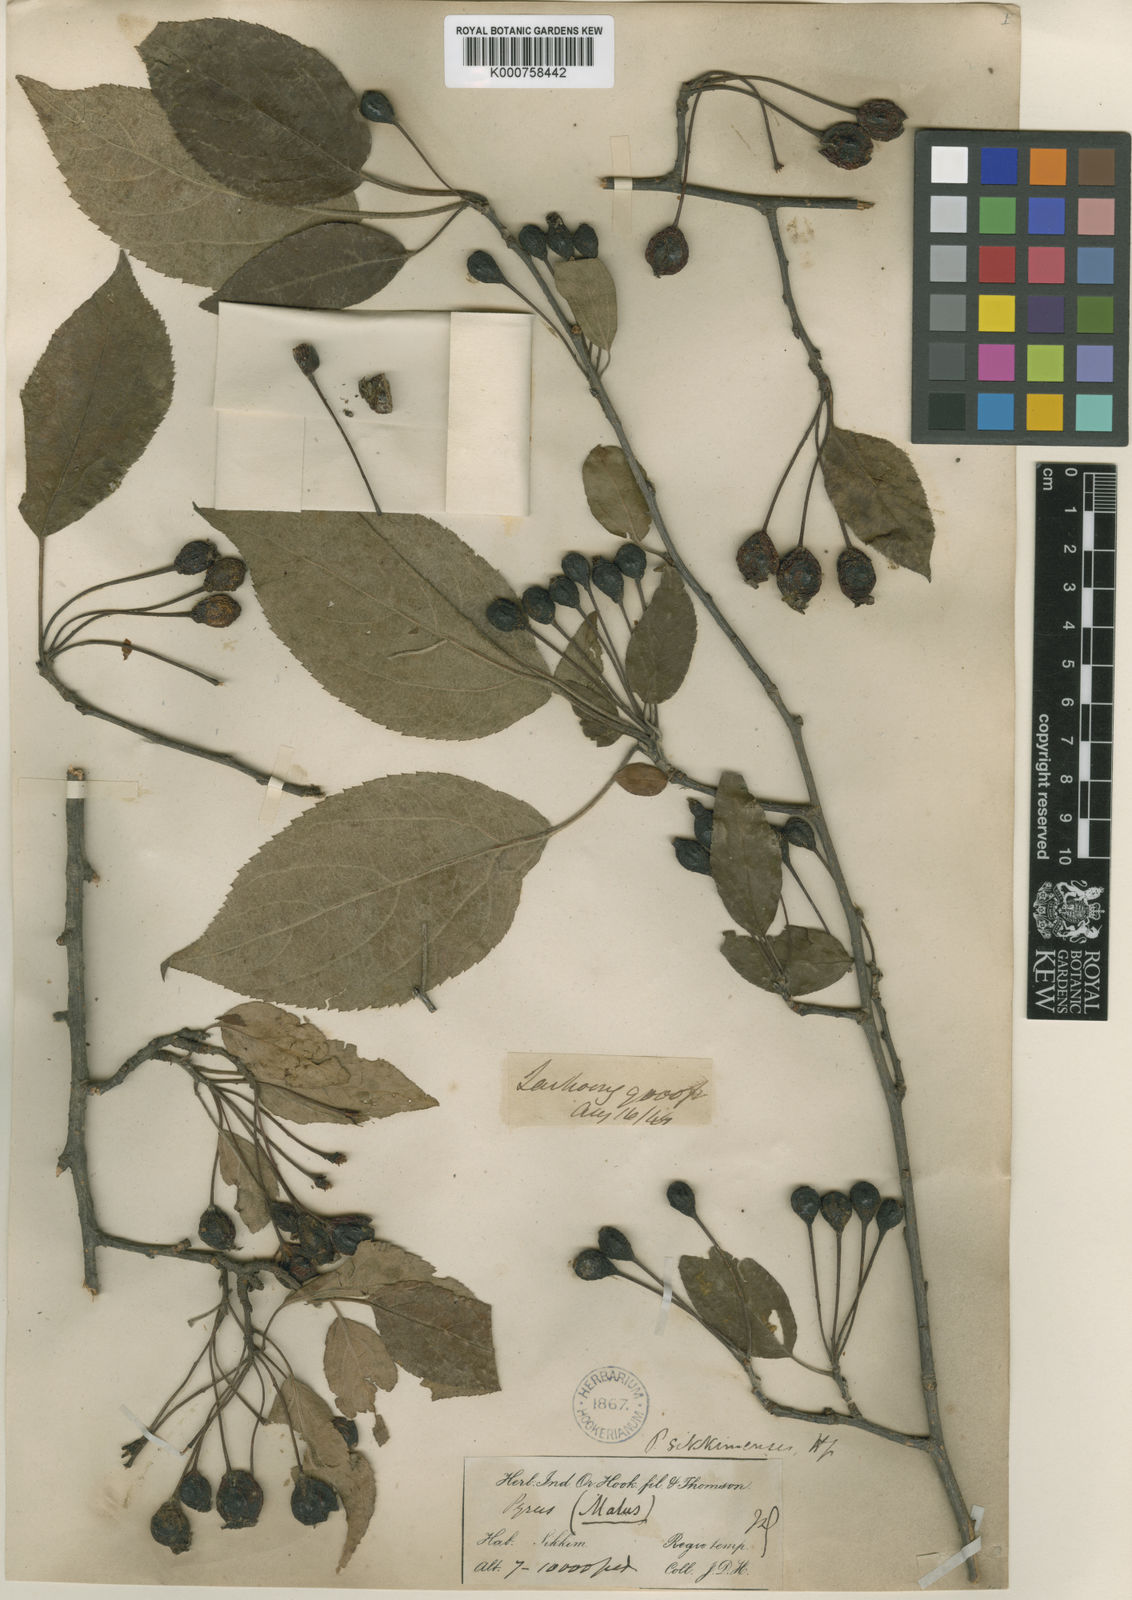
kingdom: Plantae
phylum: Tracheophyta
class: Magnoliopsida
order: Rosales
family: Rosaceae
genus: Malus
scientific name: Malus sikkimensis
